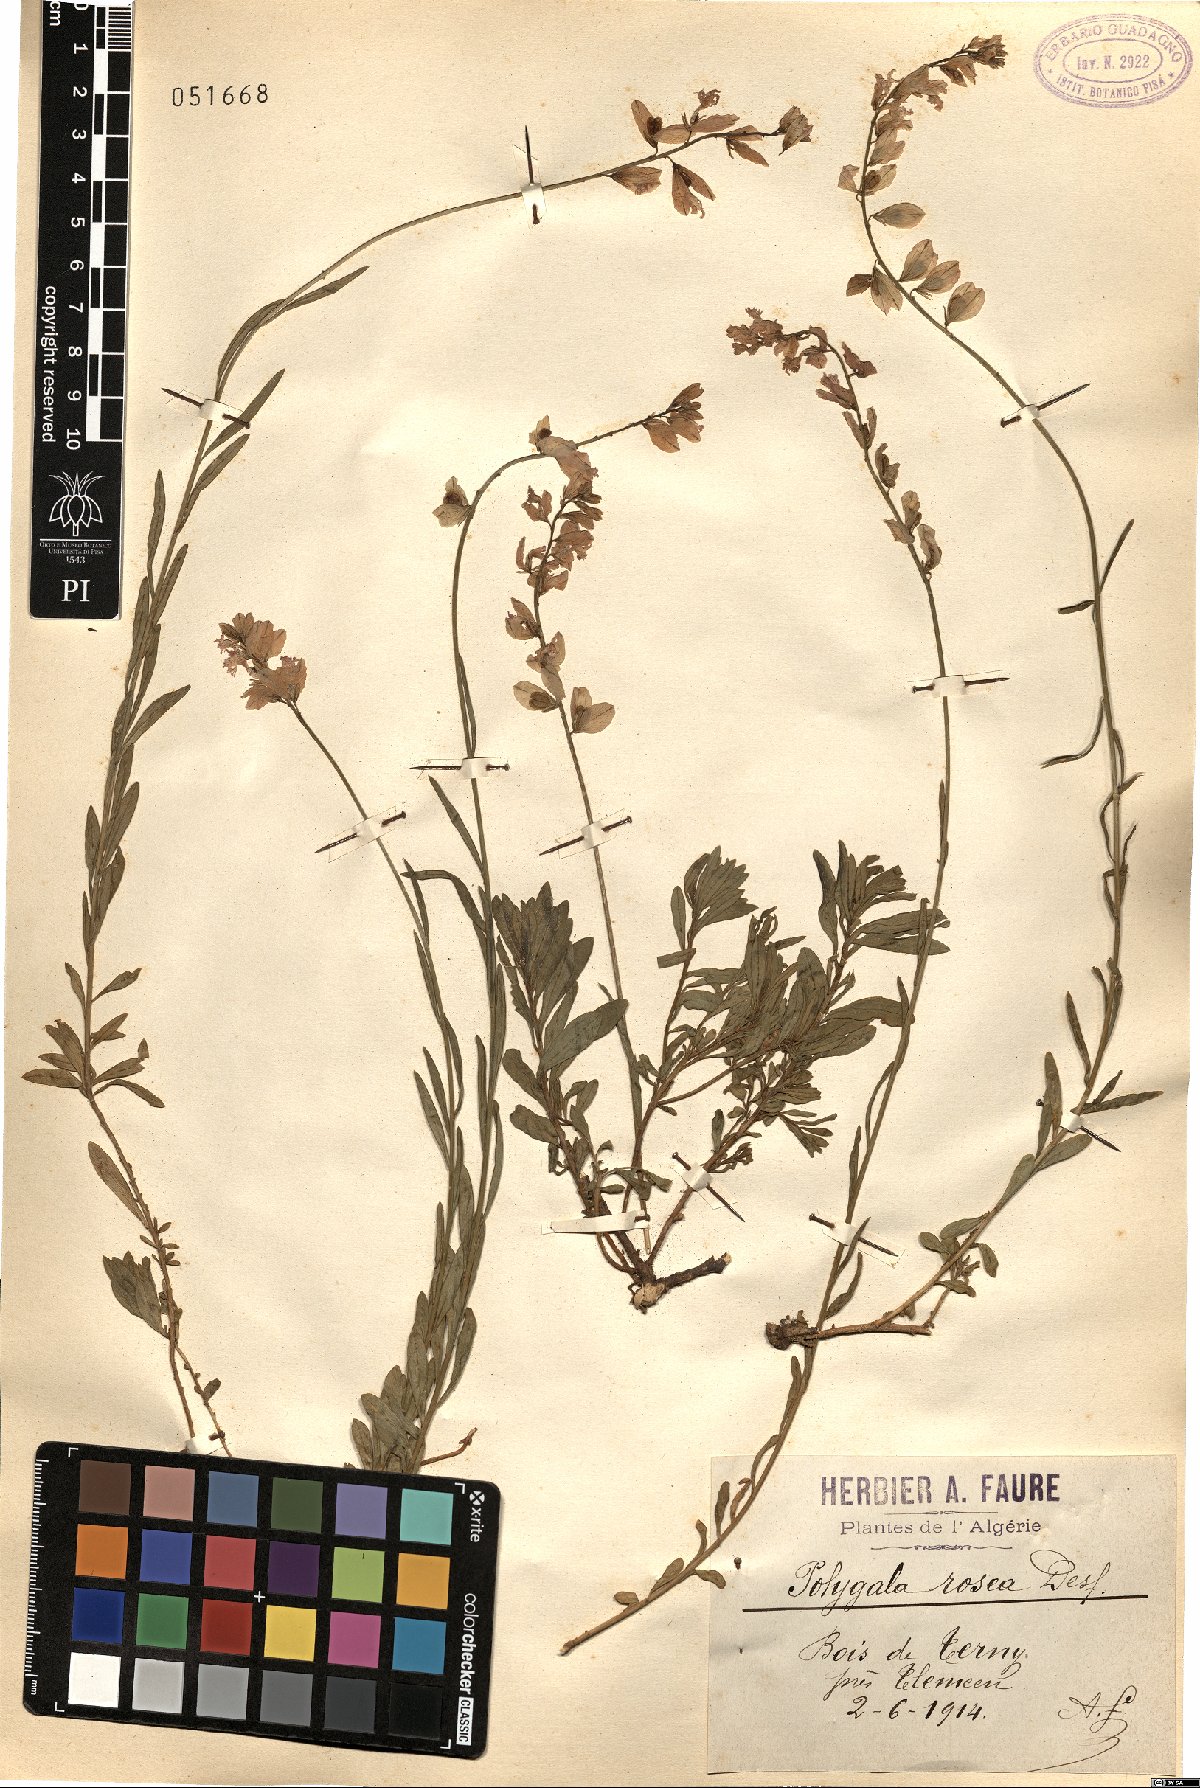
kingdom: Plantae
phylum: Tracheophyta
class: Magnoliopsida
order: Fabales
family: Polygalaceae
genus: Polygala
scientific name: Polygala rosea
